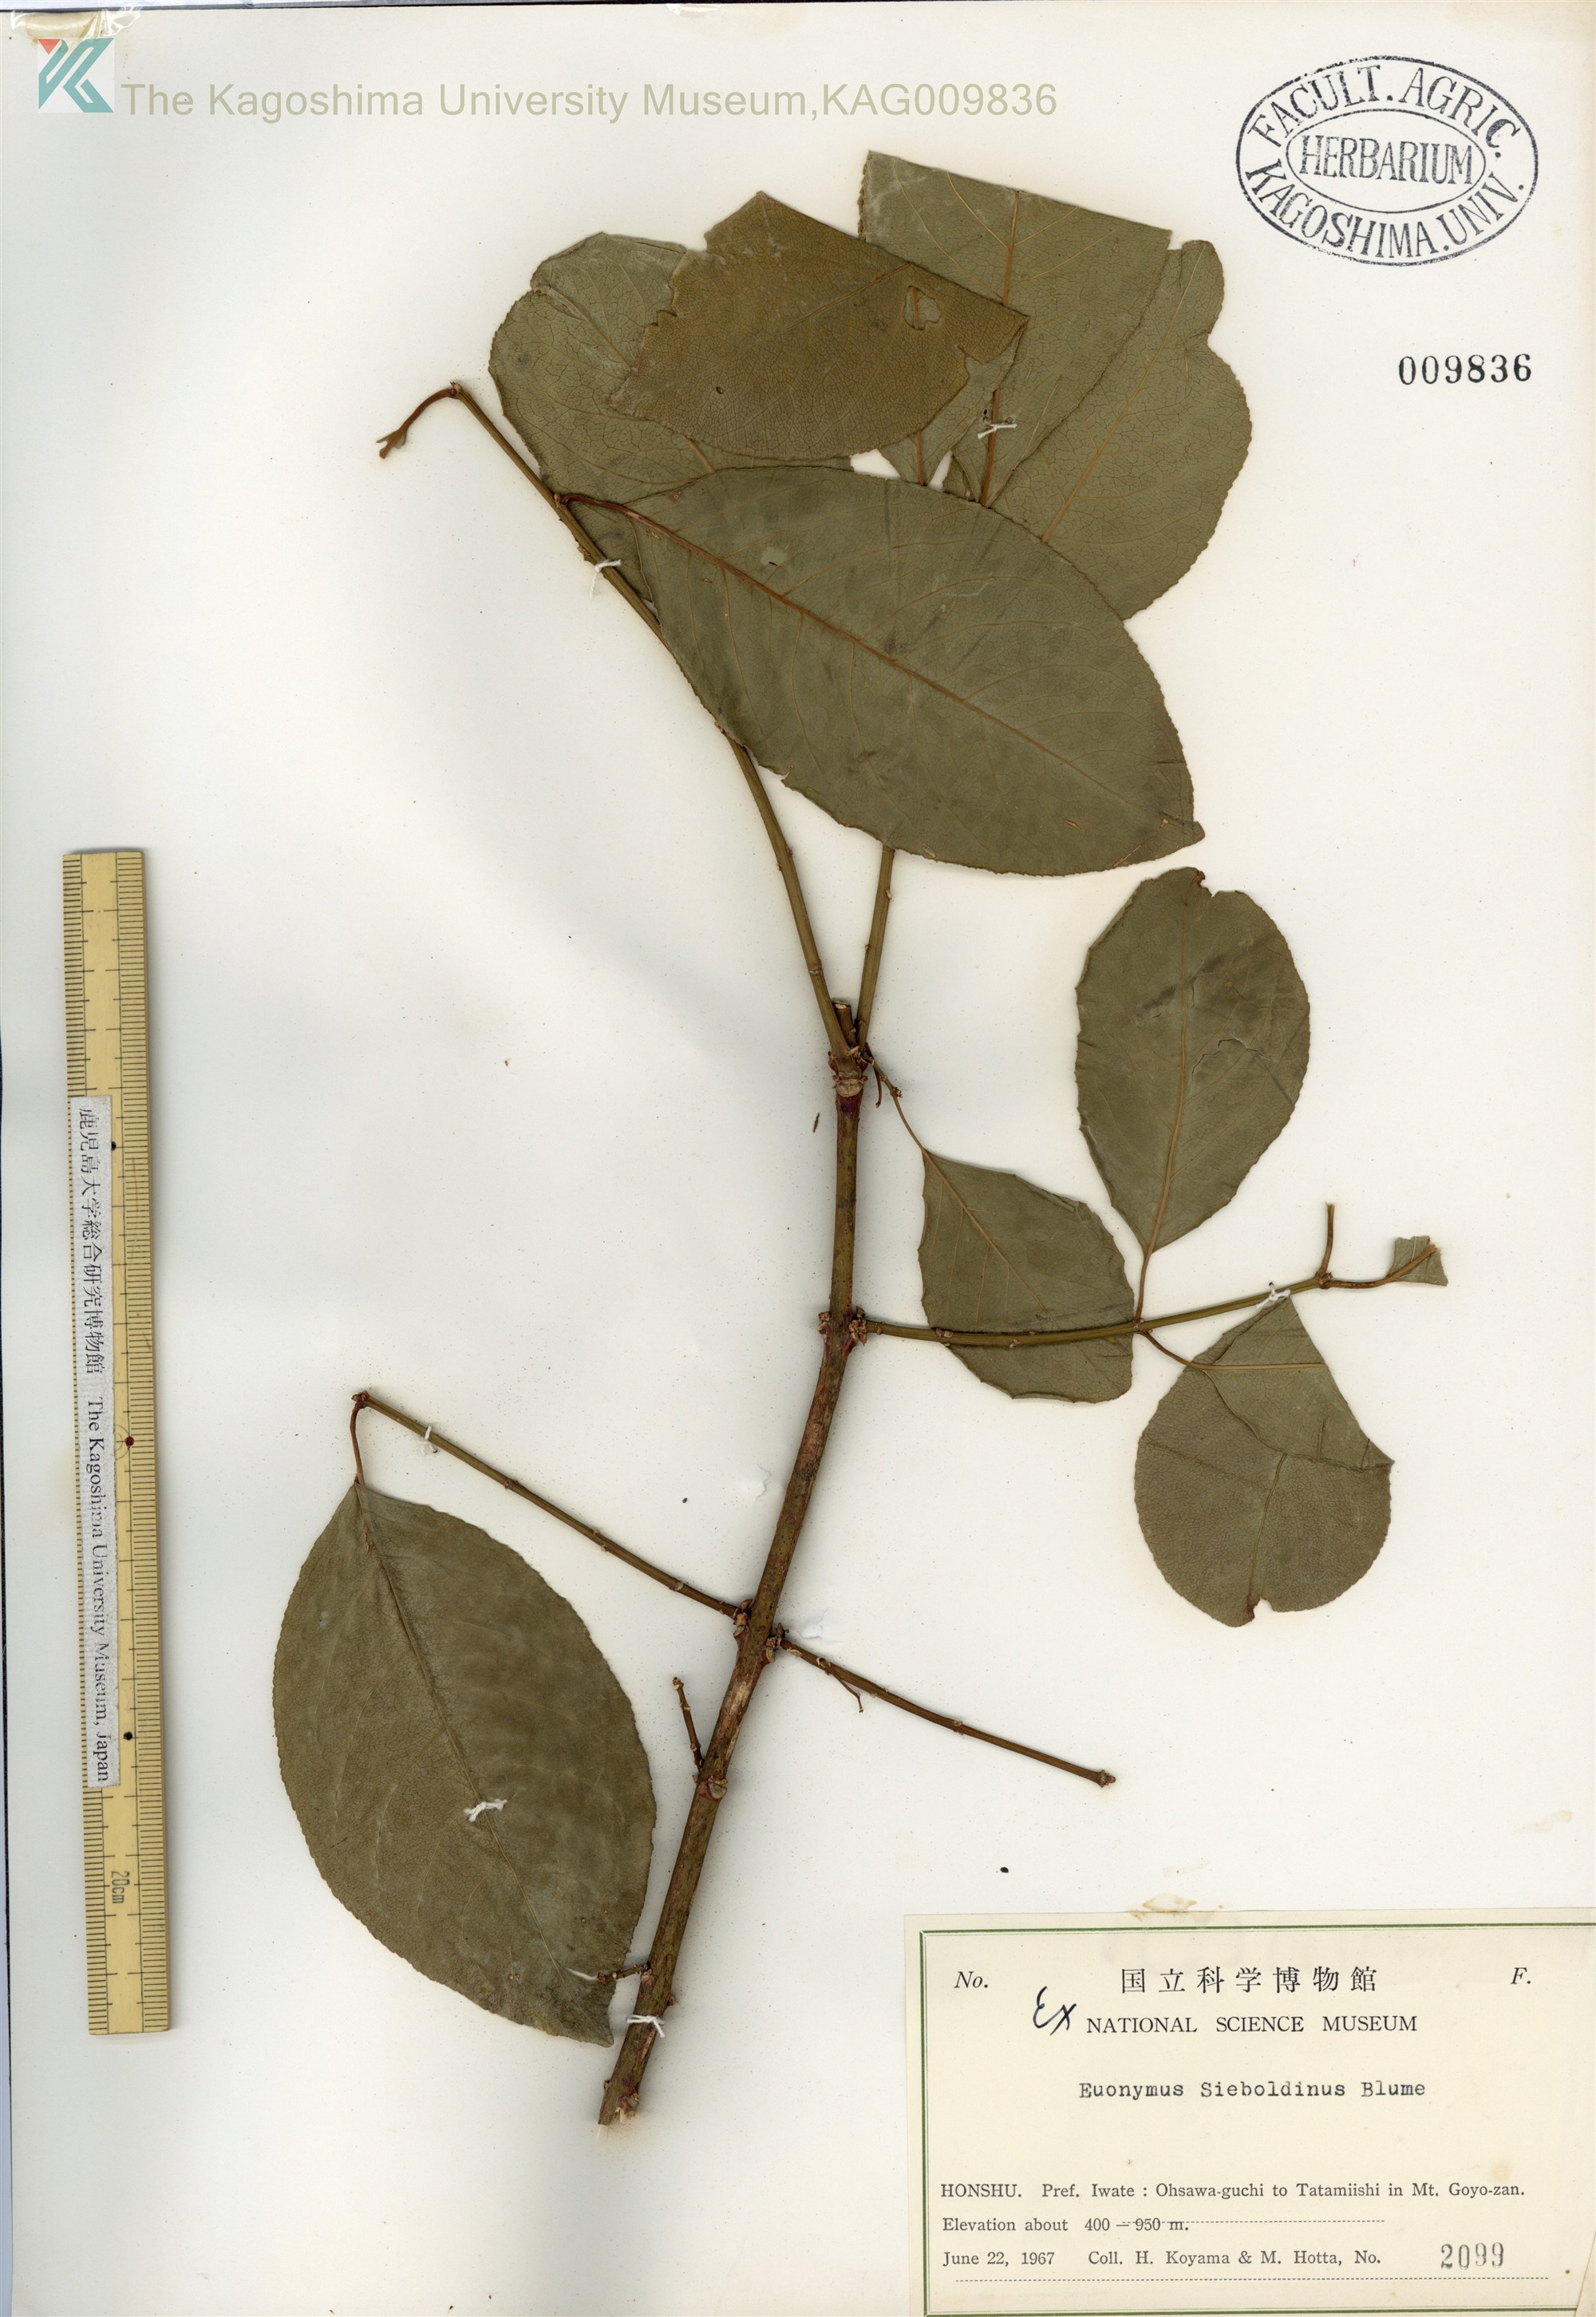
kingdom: Plantae
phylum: Tracheophyta
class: Magnoliopsida
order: Celastrales
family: Celastraceae
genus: Euonymus
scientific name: Euonymus hamiltonianus
